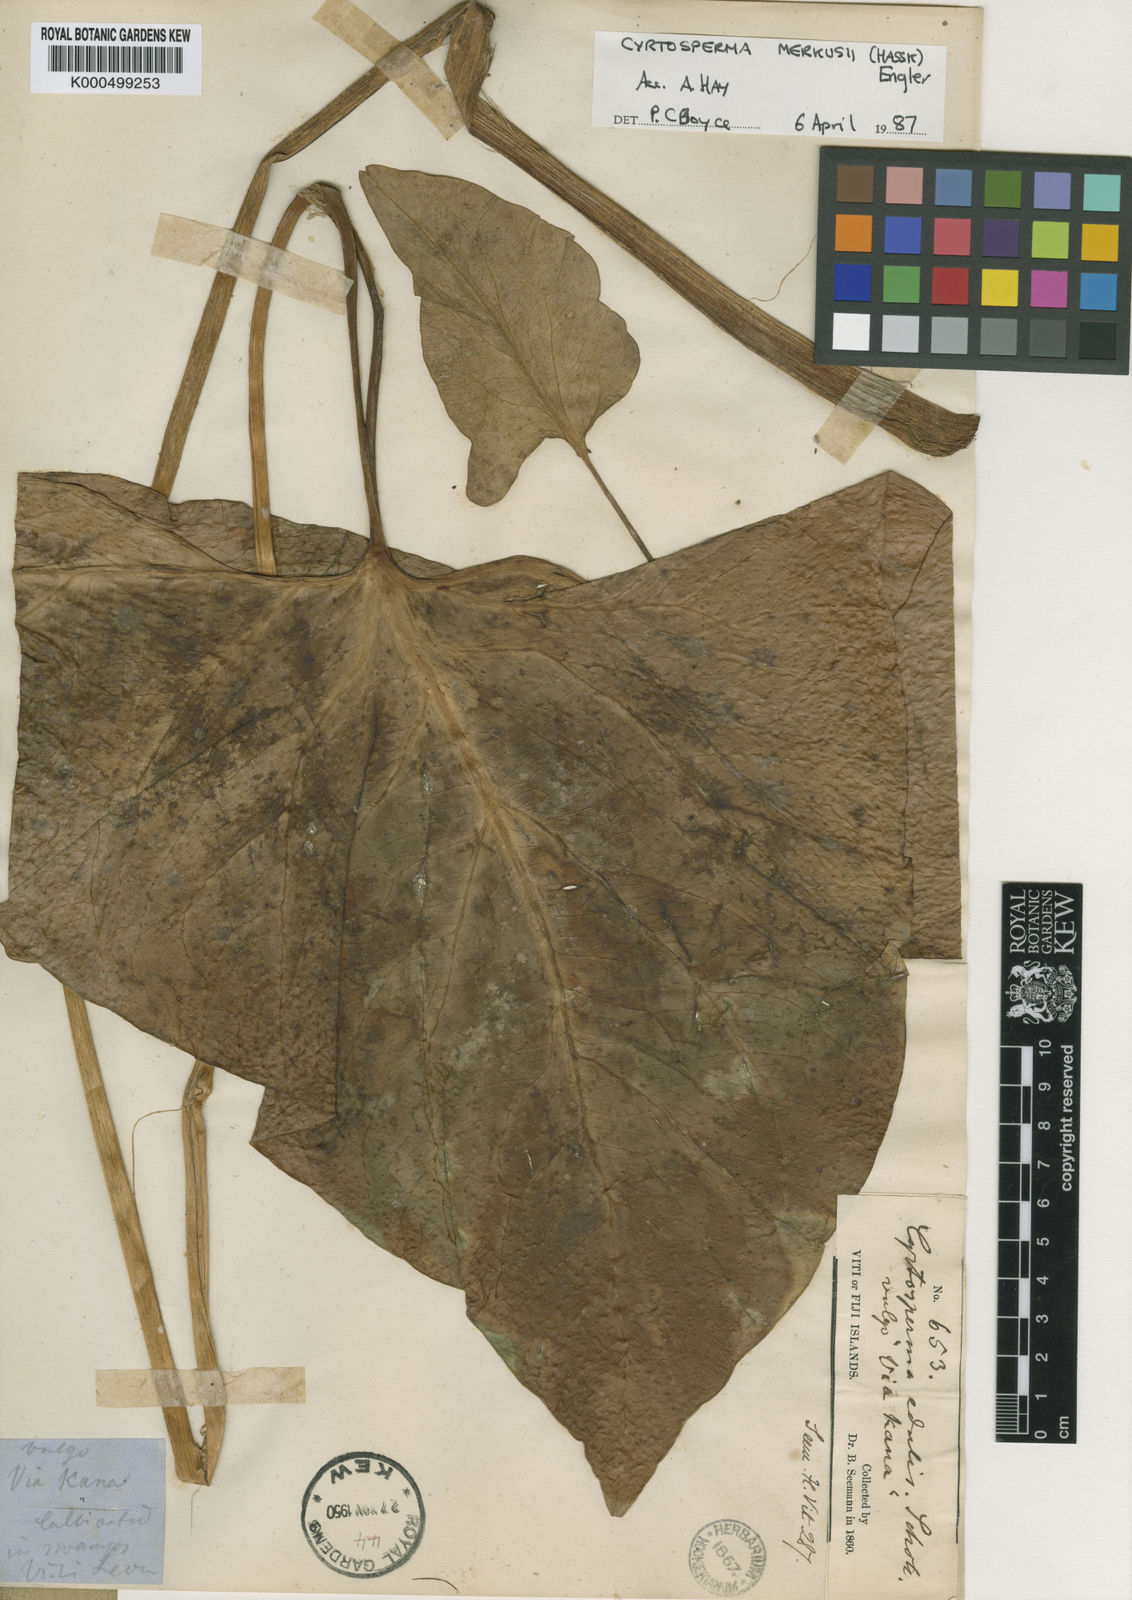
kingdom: Plantae
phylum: Tracheophyta
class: Liliopsida
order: Alismatales
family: Araceae
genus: Cyrtosperma
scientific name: Cyrtosperma merkusii
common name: Giant swamp-taro
